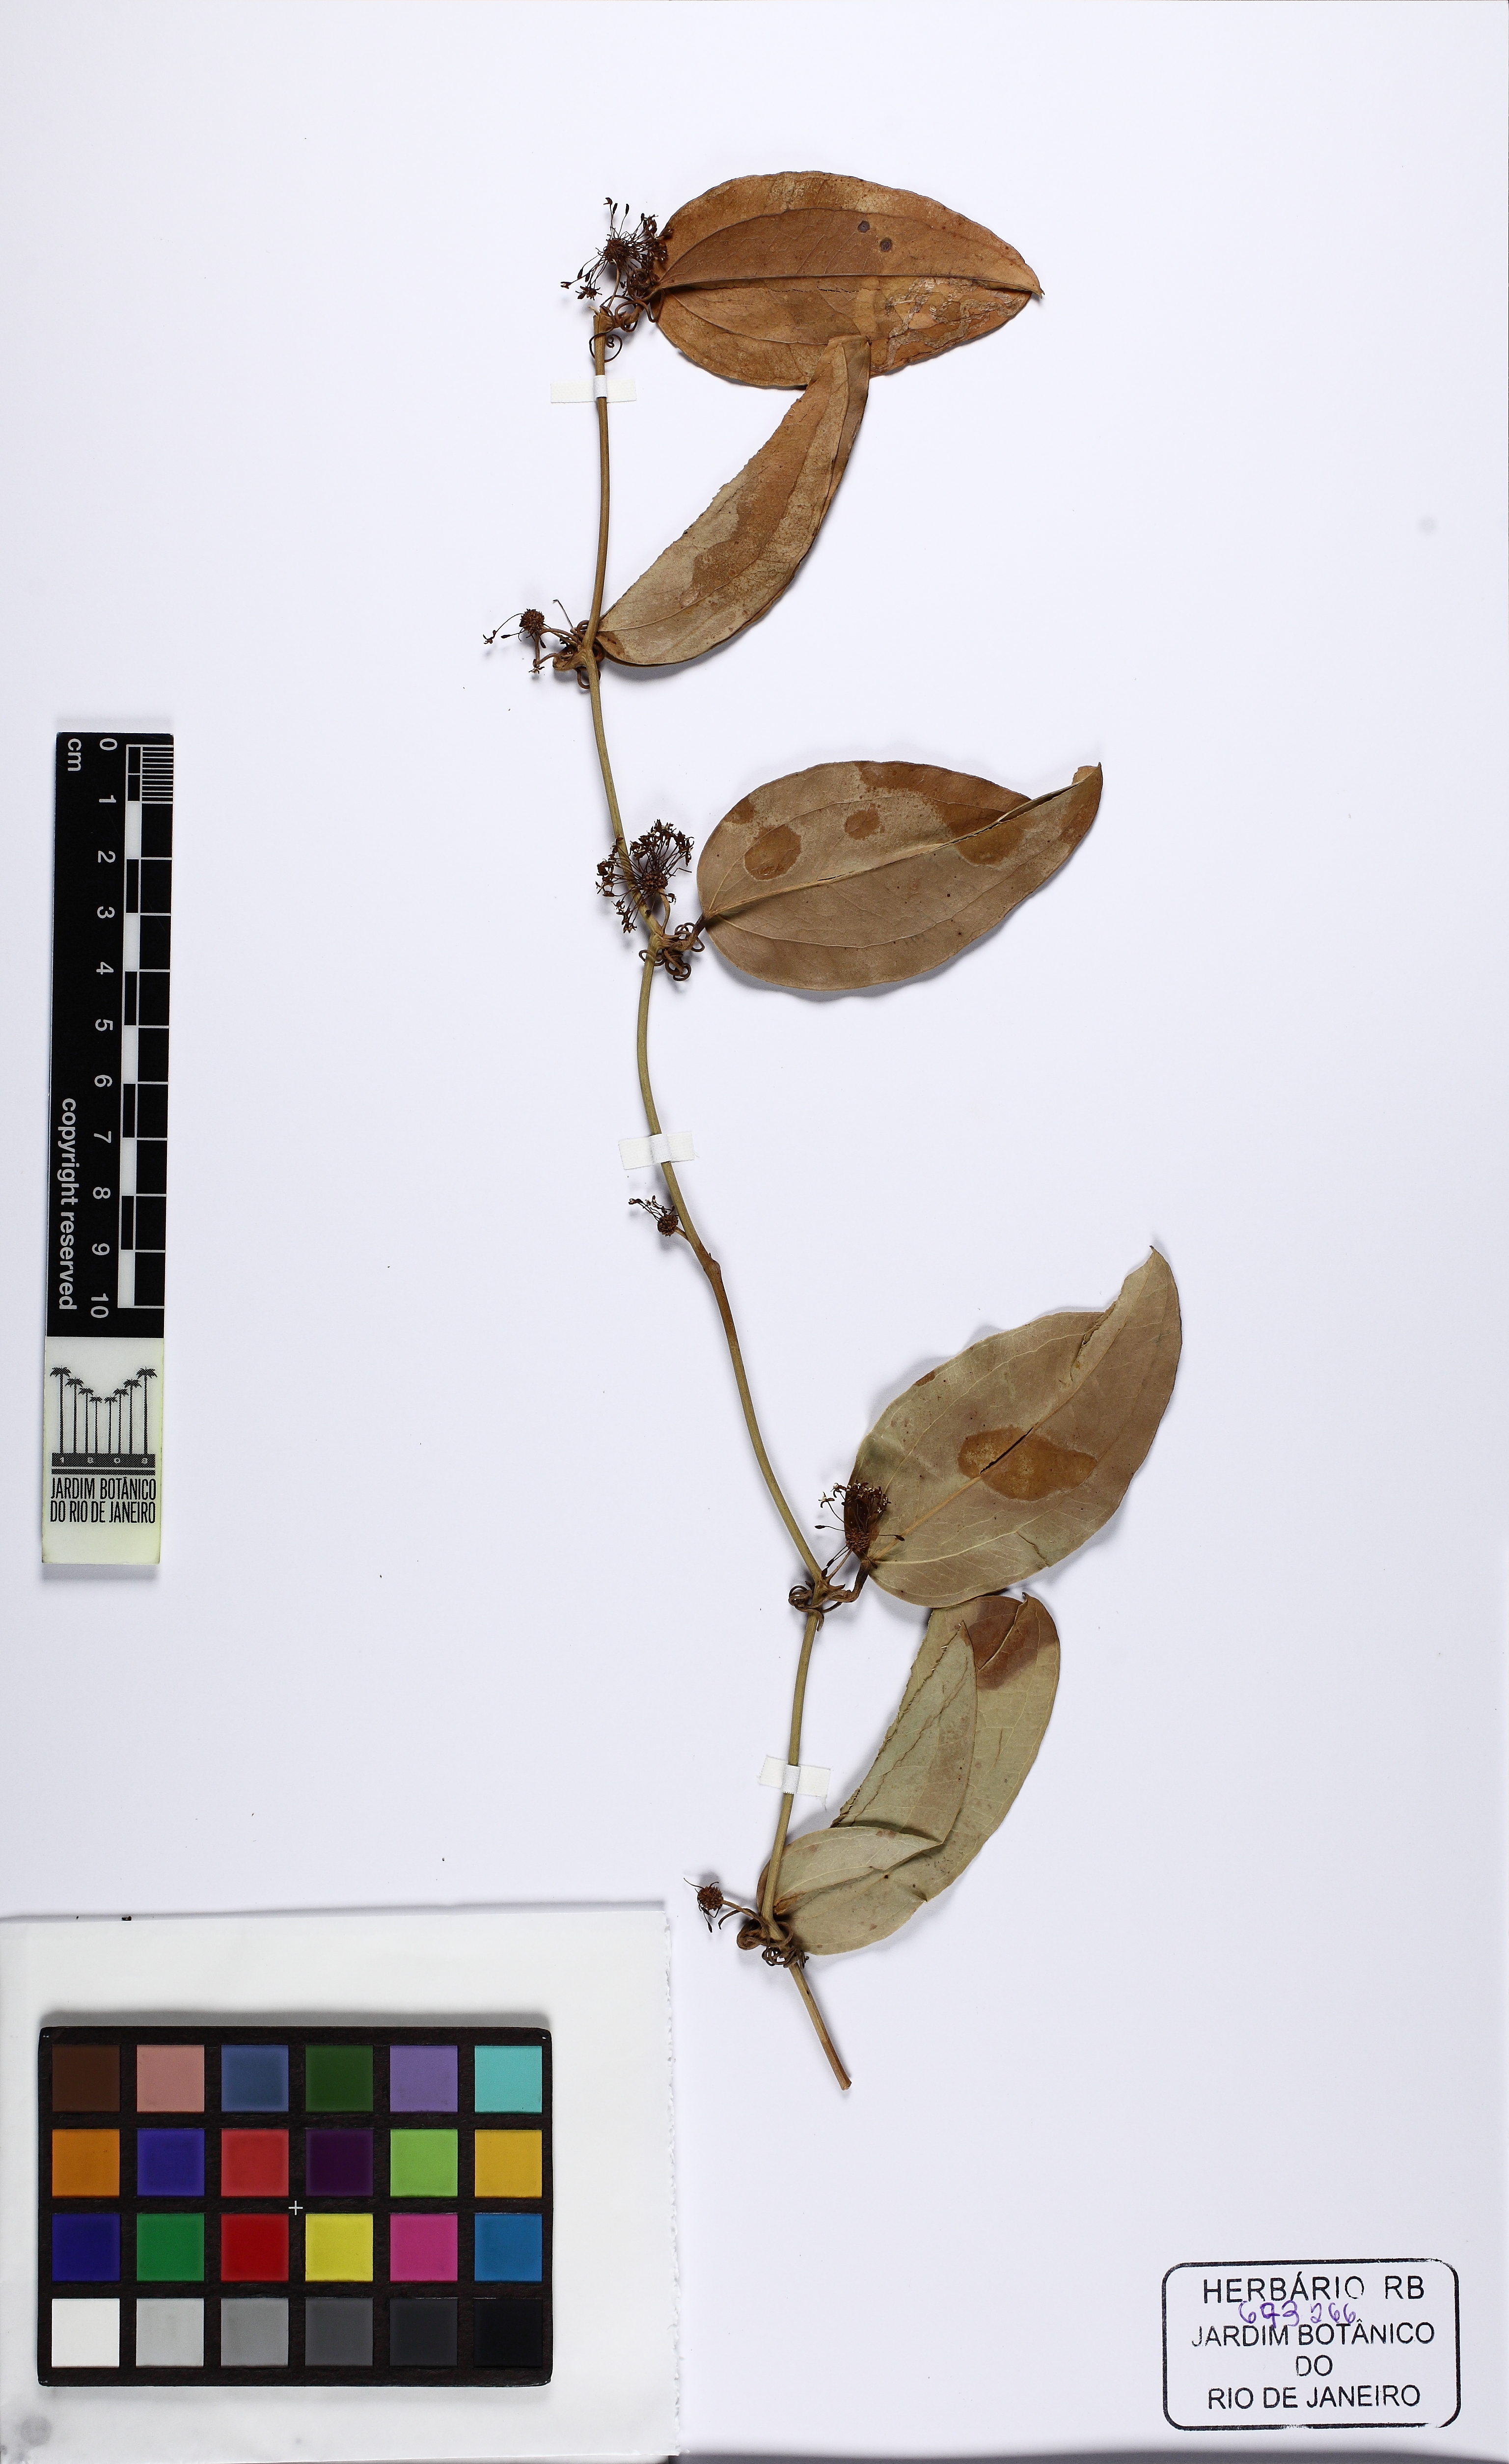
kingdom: Plantae
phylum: Tracheophyta
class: Liliopsida
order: Liliales
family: Smilacaceae
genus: Smilax
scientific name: Smilax rufescens
